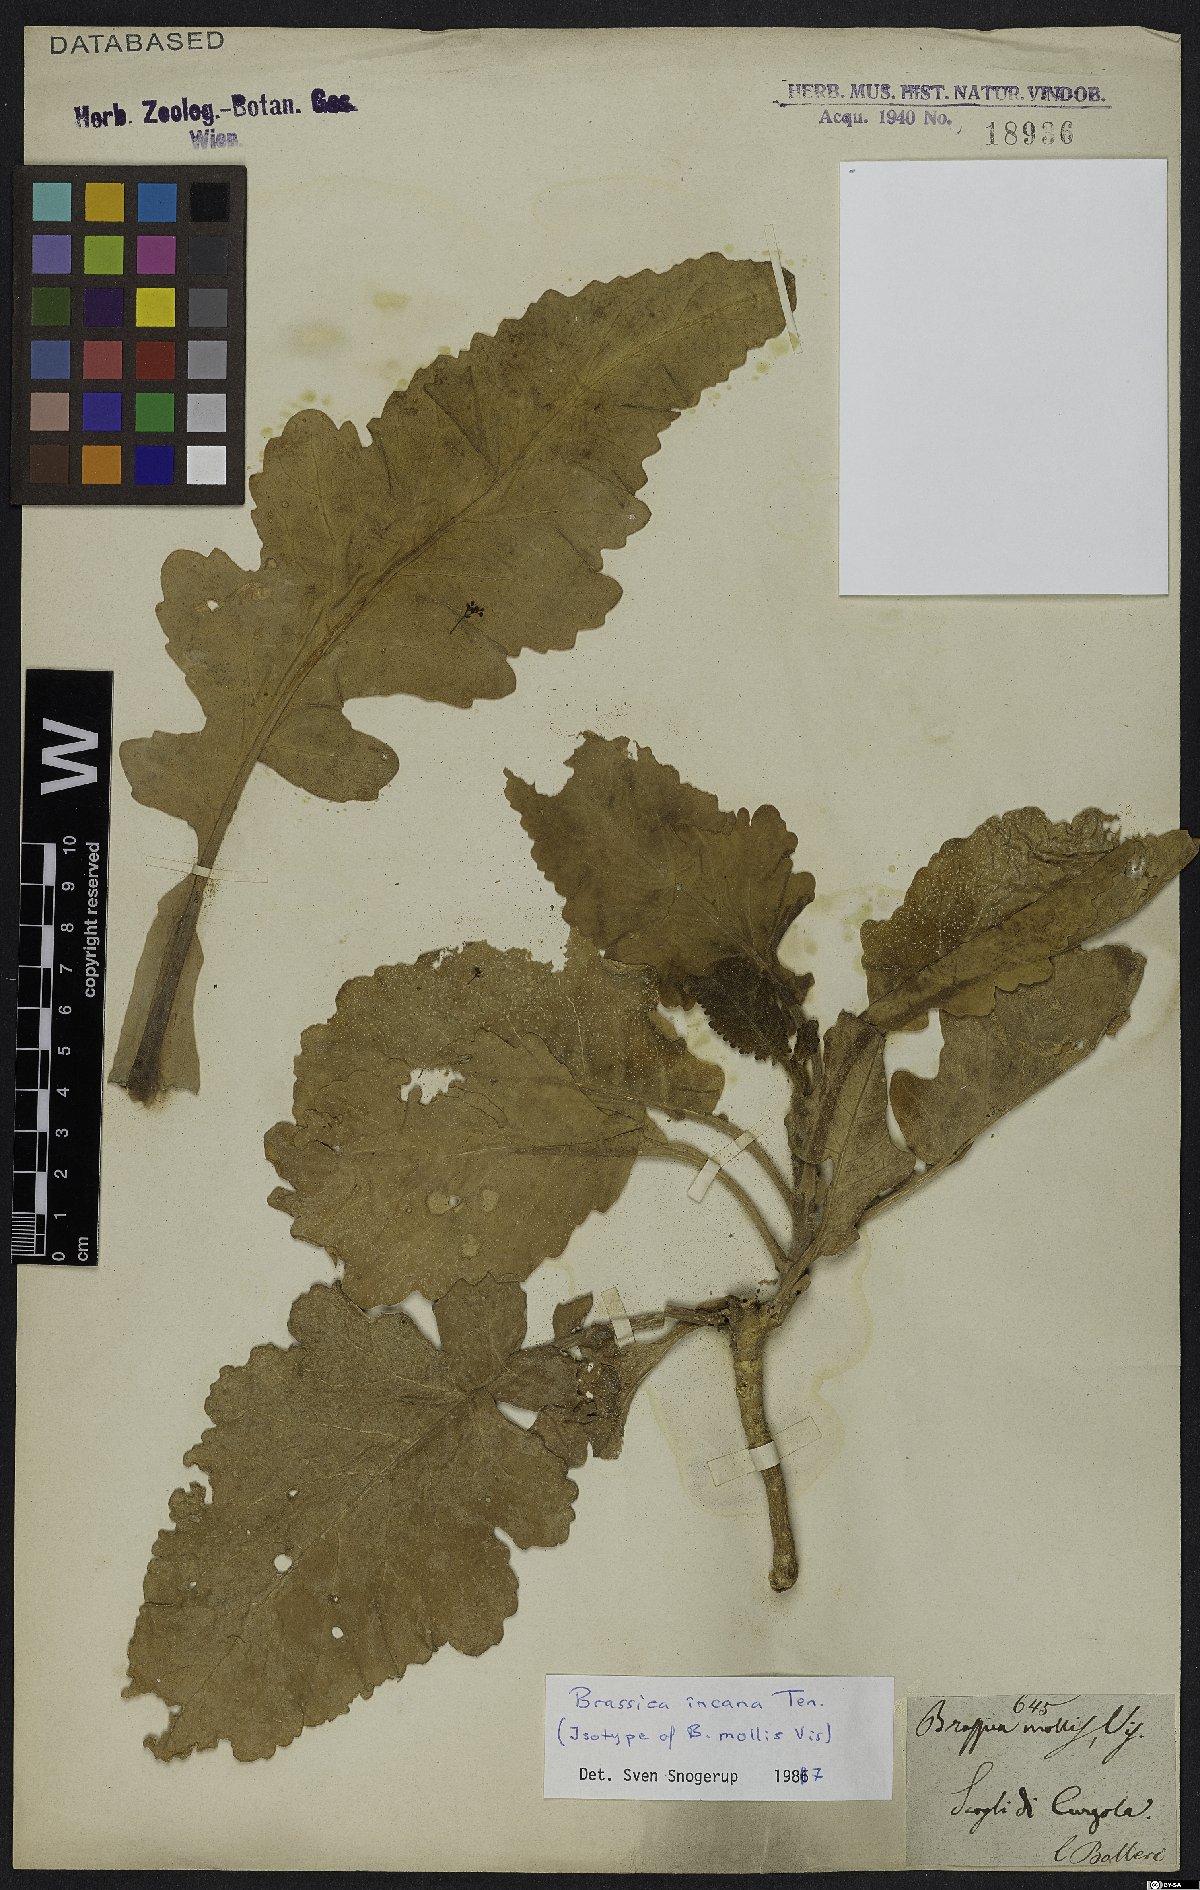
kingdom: Plantae
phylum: Tracheophyta
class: Magnoliopsida
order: Brassicales
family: Brassicaceae
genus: Brassica
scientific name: Brassica incana
